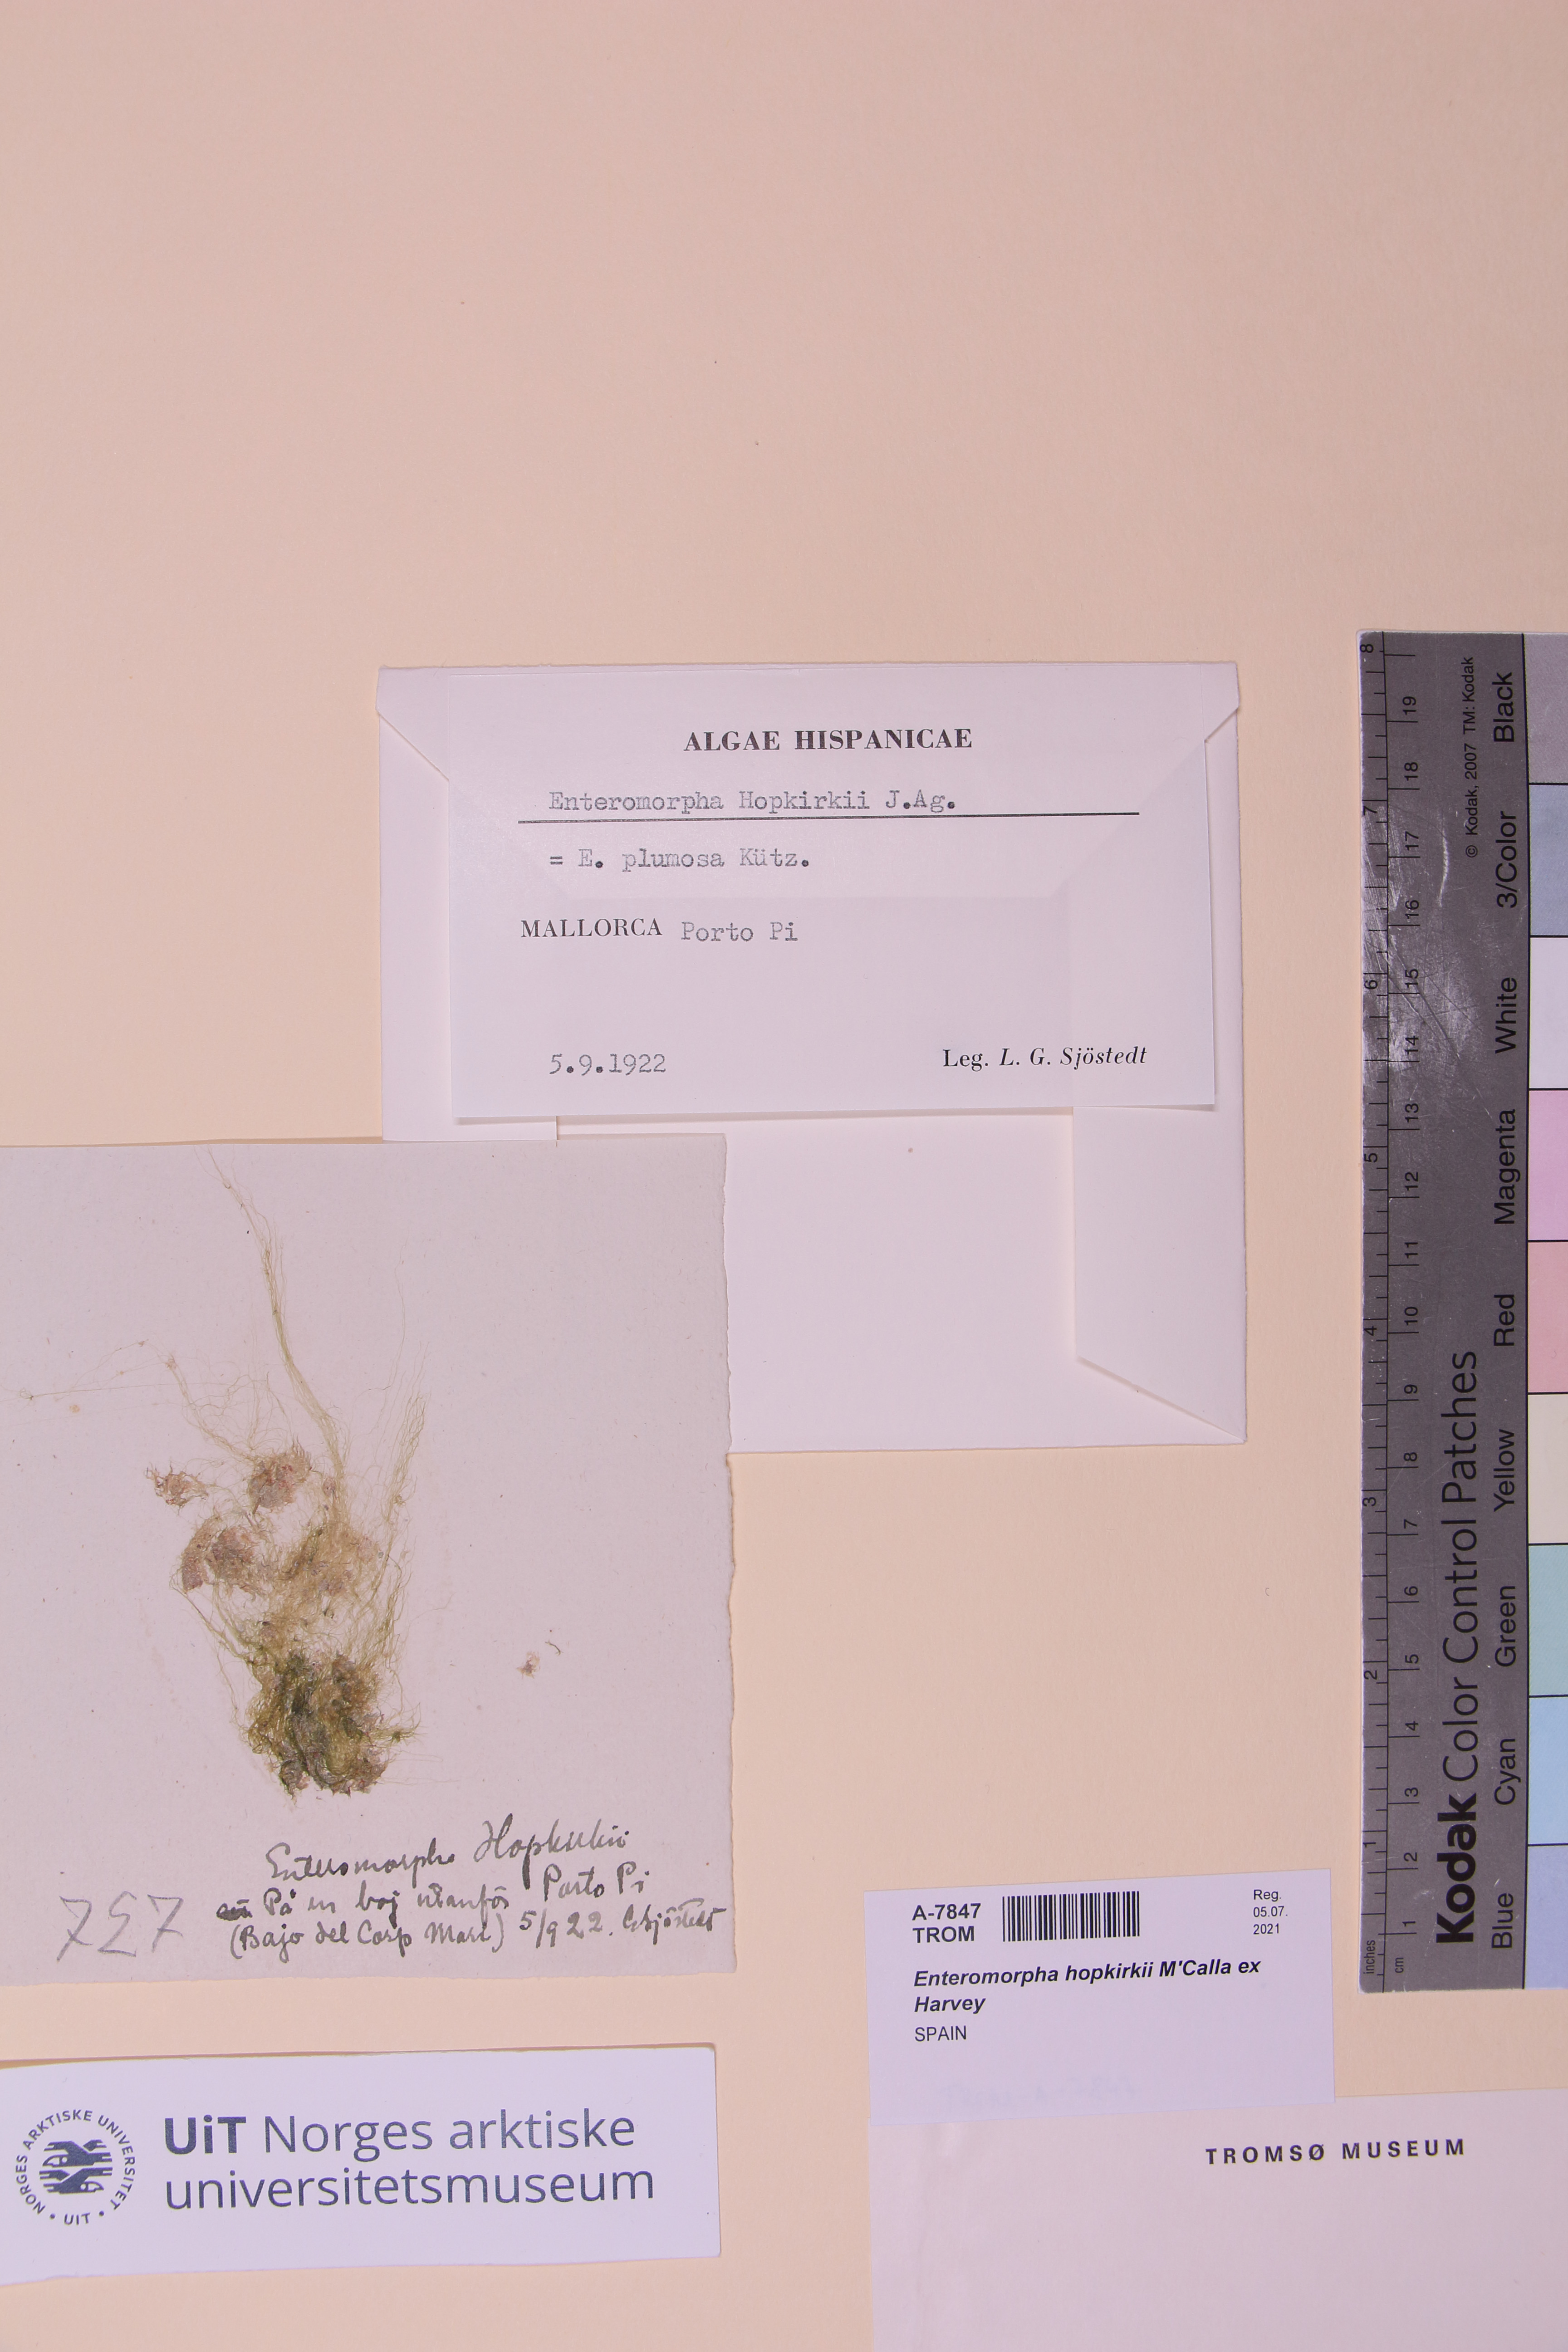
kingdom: Plantae
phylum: Chlorophyta
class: Ulvophyceae
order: Ulvales
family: Ulvaceae
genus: Ulva
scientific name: Ulva paradoxa
